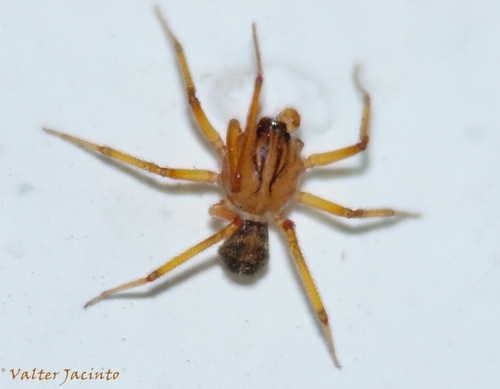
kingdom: Animalia
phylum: Arthropoda
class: Arachnida
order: Araneae
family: Scytodidae
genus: Scytodes
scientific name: Scytodes velutina
